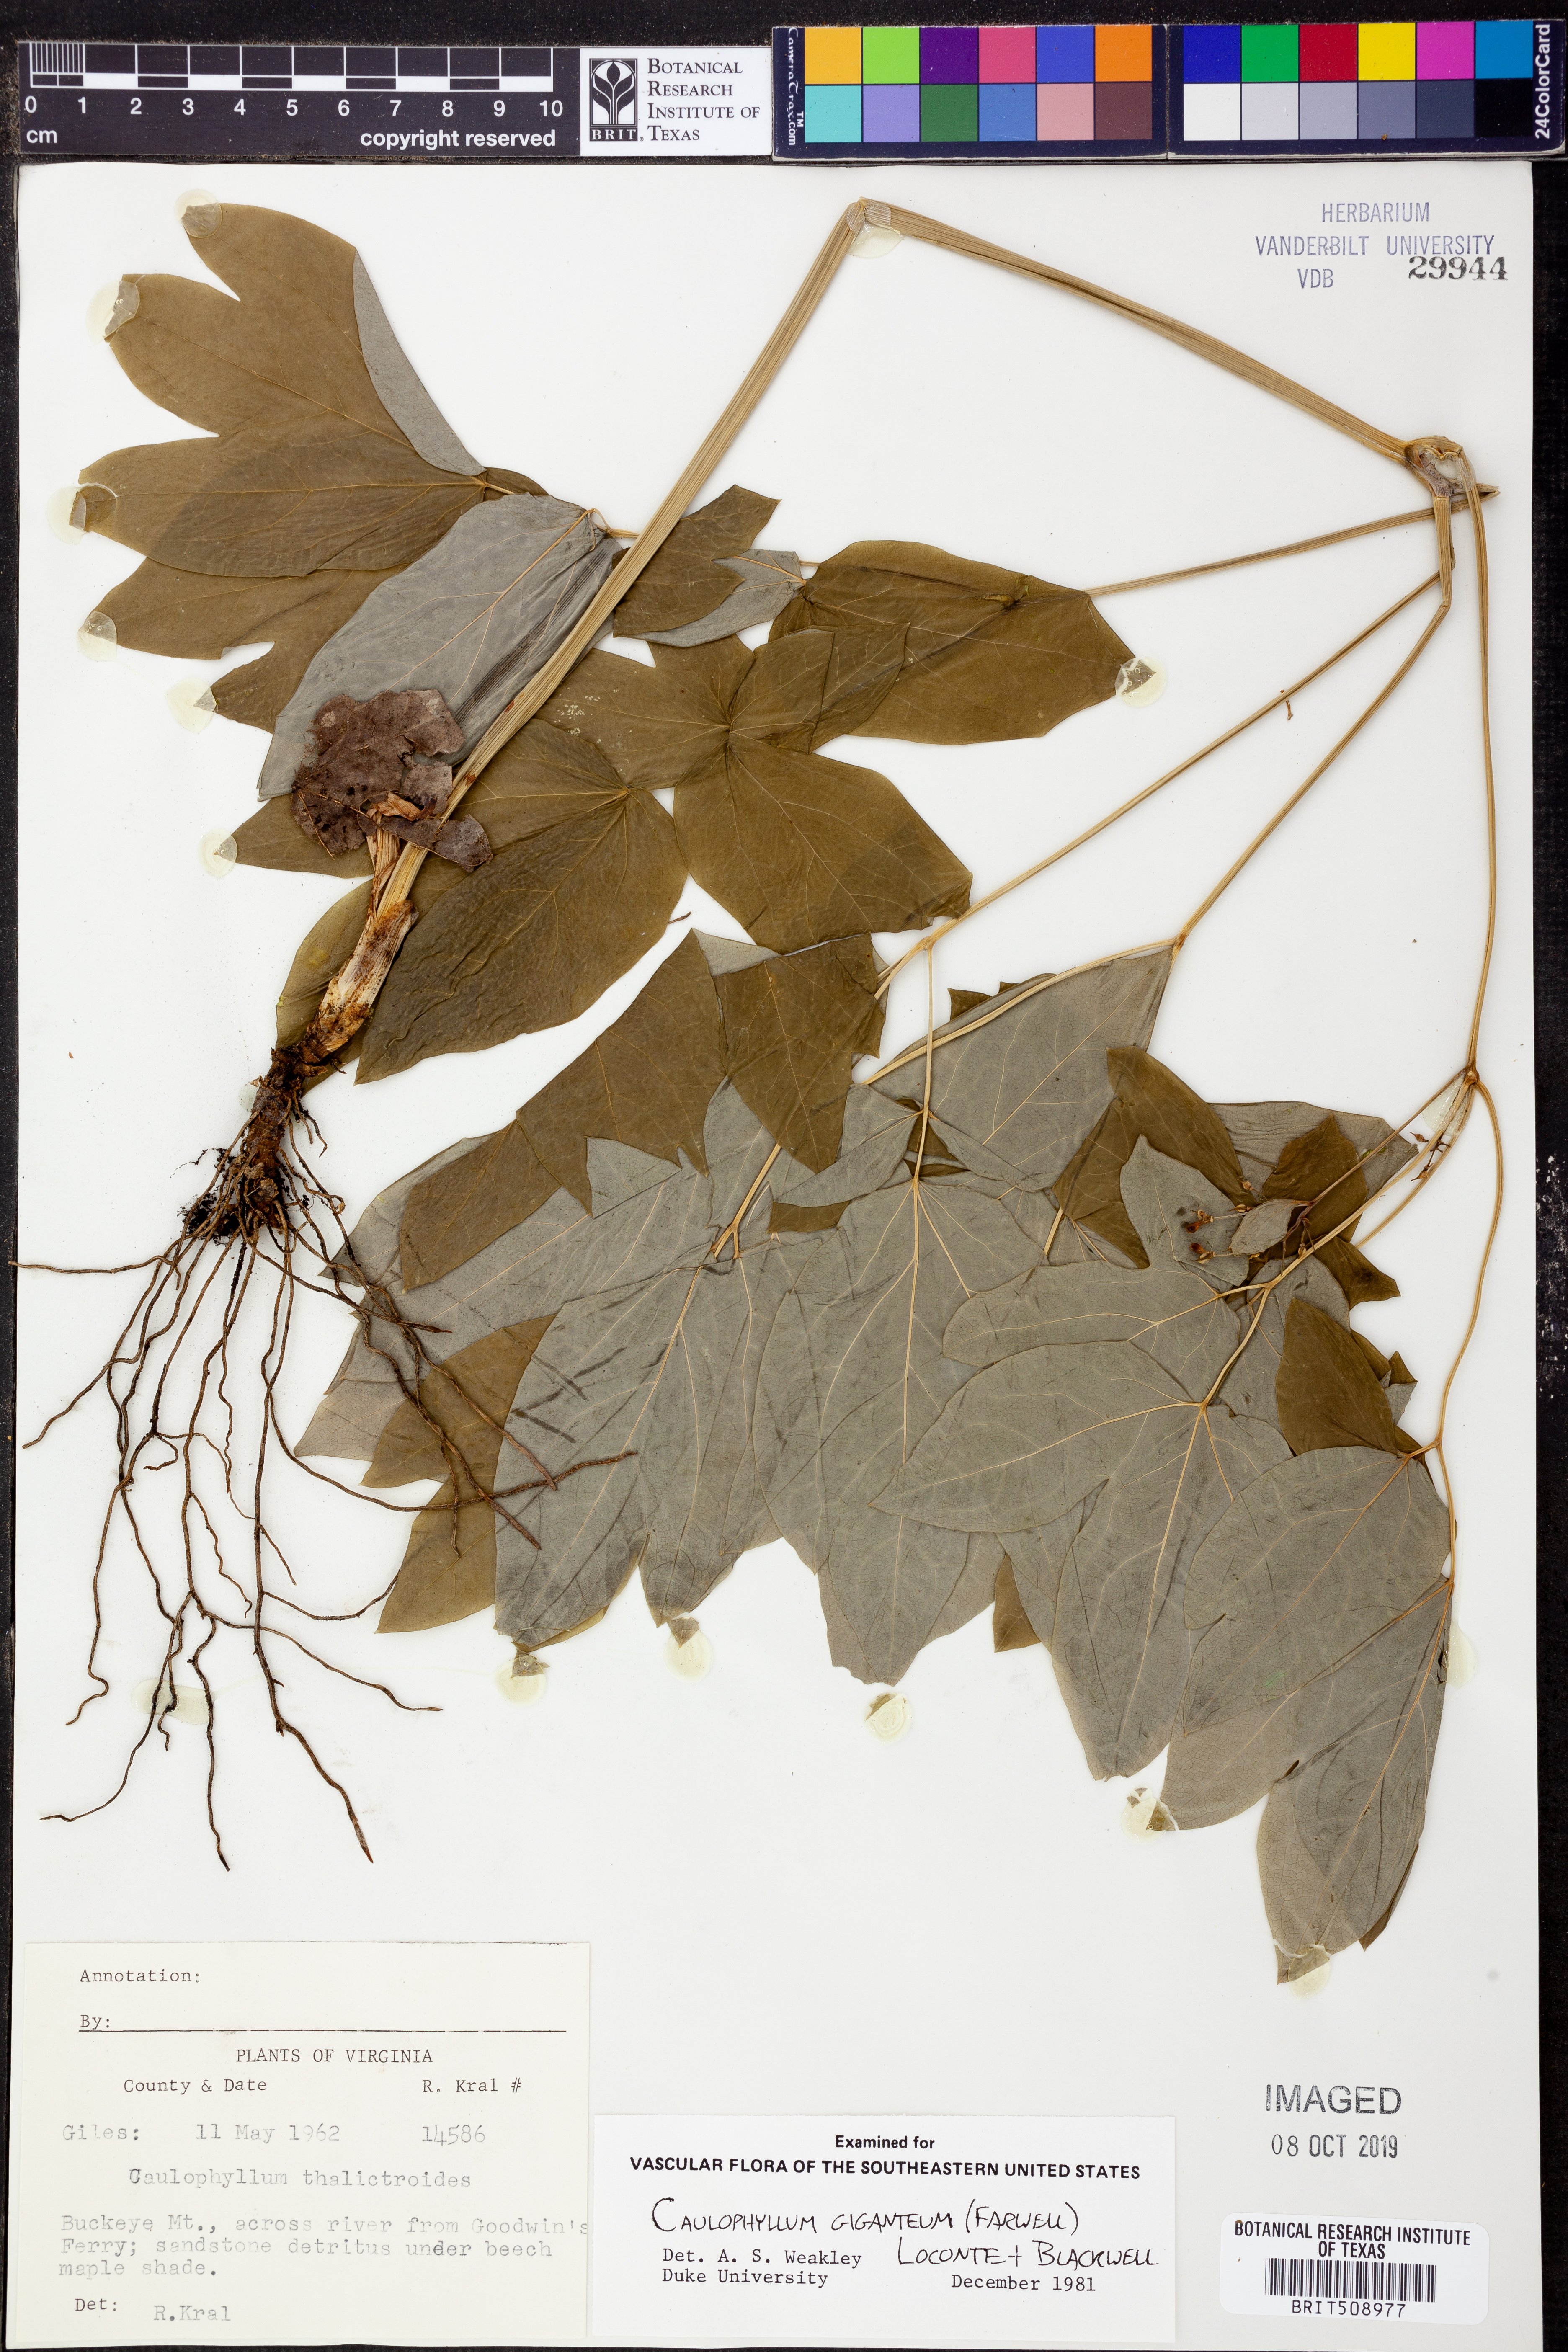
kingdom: Plantae
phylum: Tracheophyta
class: Magnoliopsida
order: Ranunculales
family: Berberidaceae
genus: Caulophyllum
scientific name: Caulophyllum giganteum
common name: Blue cohosh
